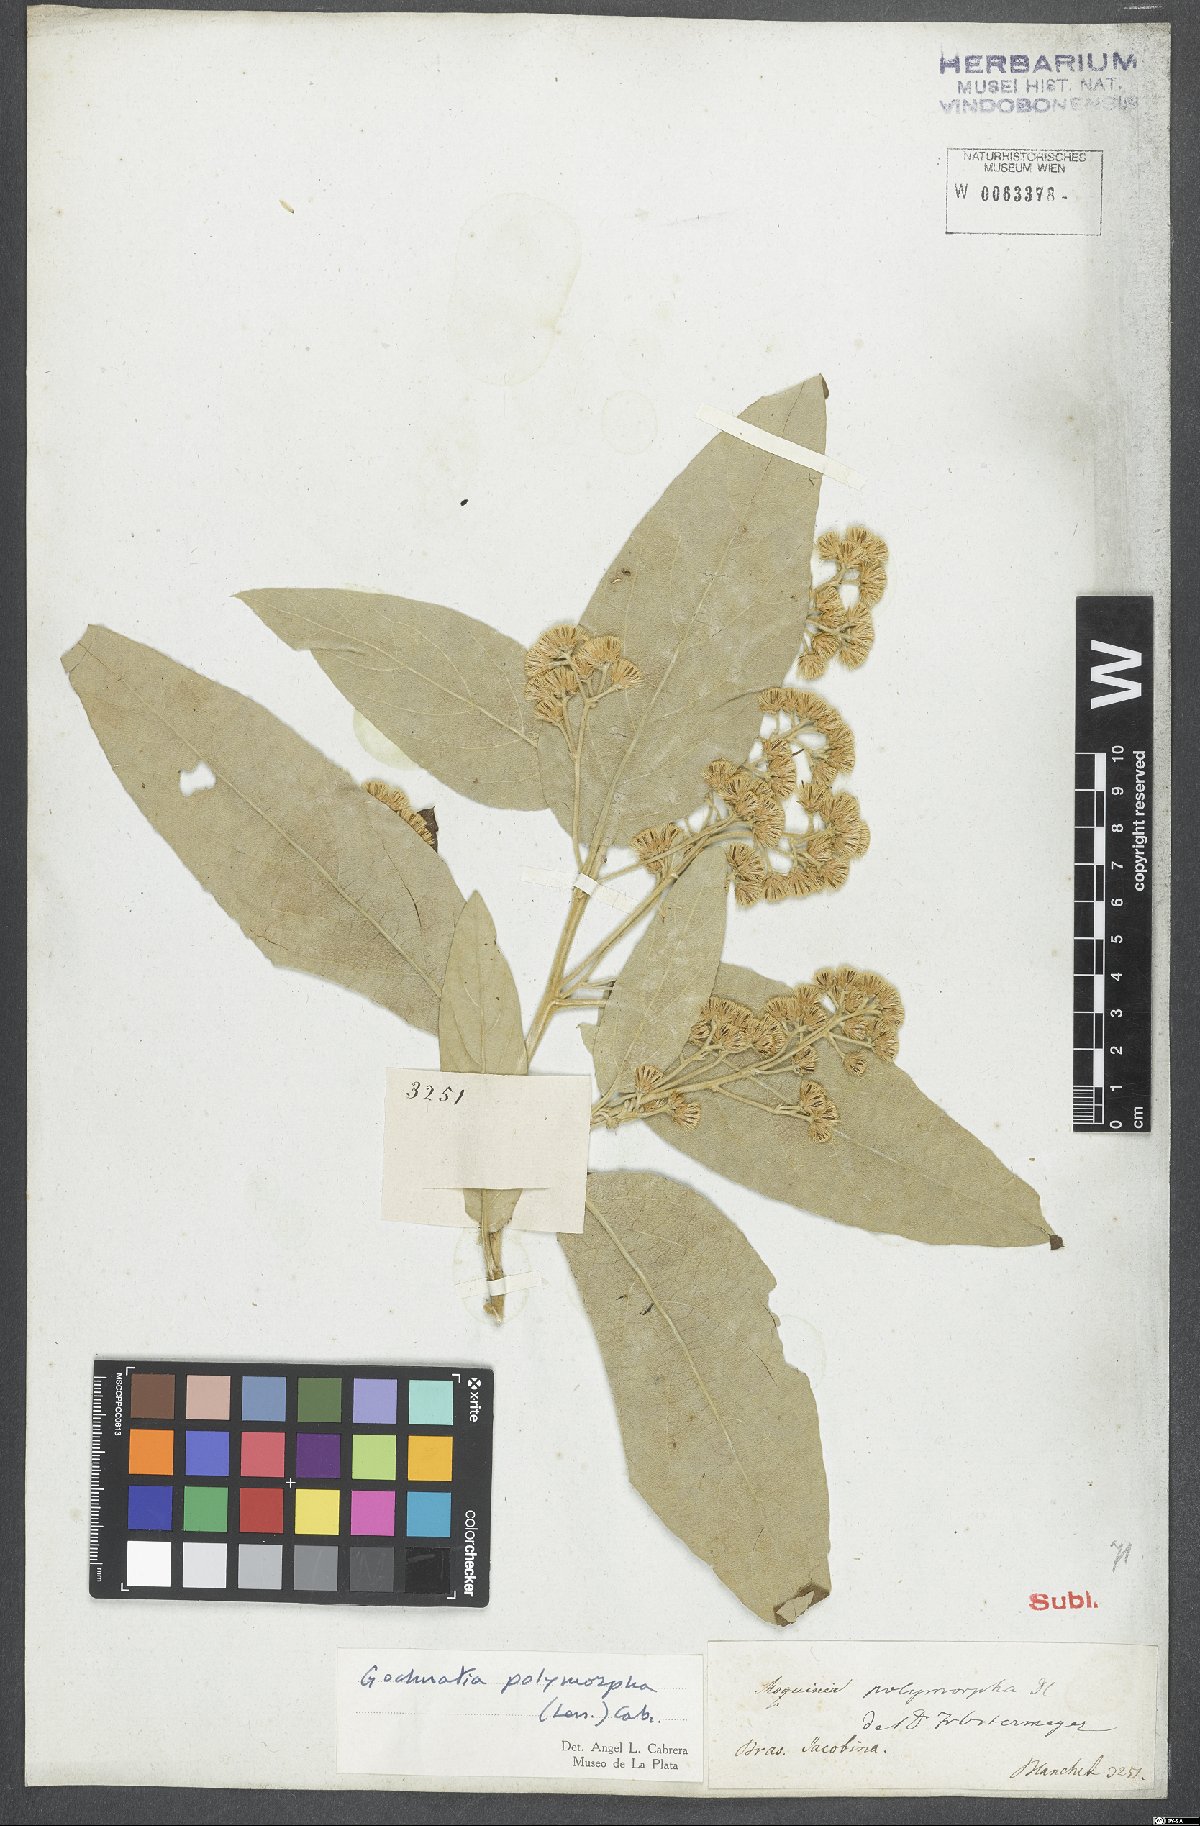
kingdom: Plantae
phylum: Tracheophyta
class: Magnoliopsida
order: Asterales
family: Asteraceae
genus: Moquiniastrum
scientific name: Moquiniastrum polymorphum
